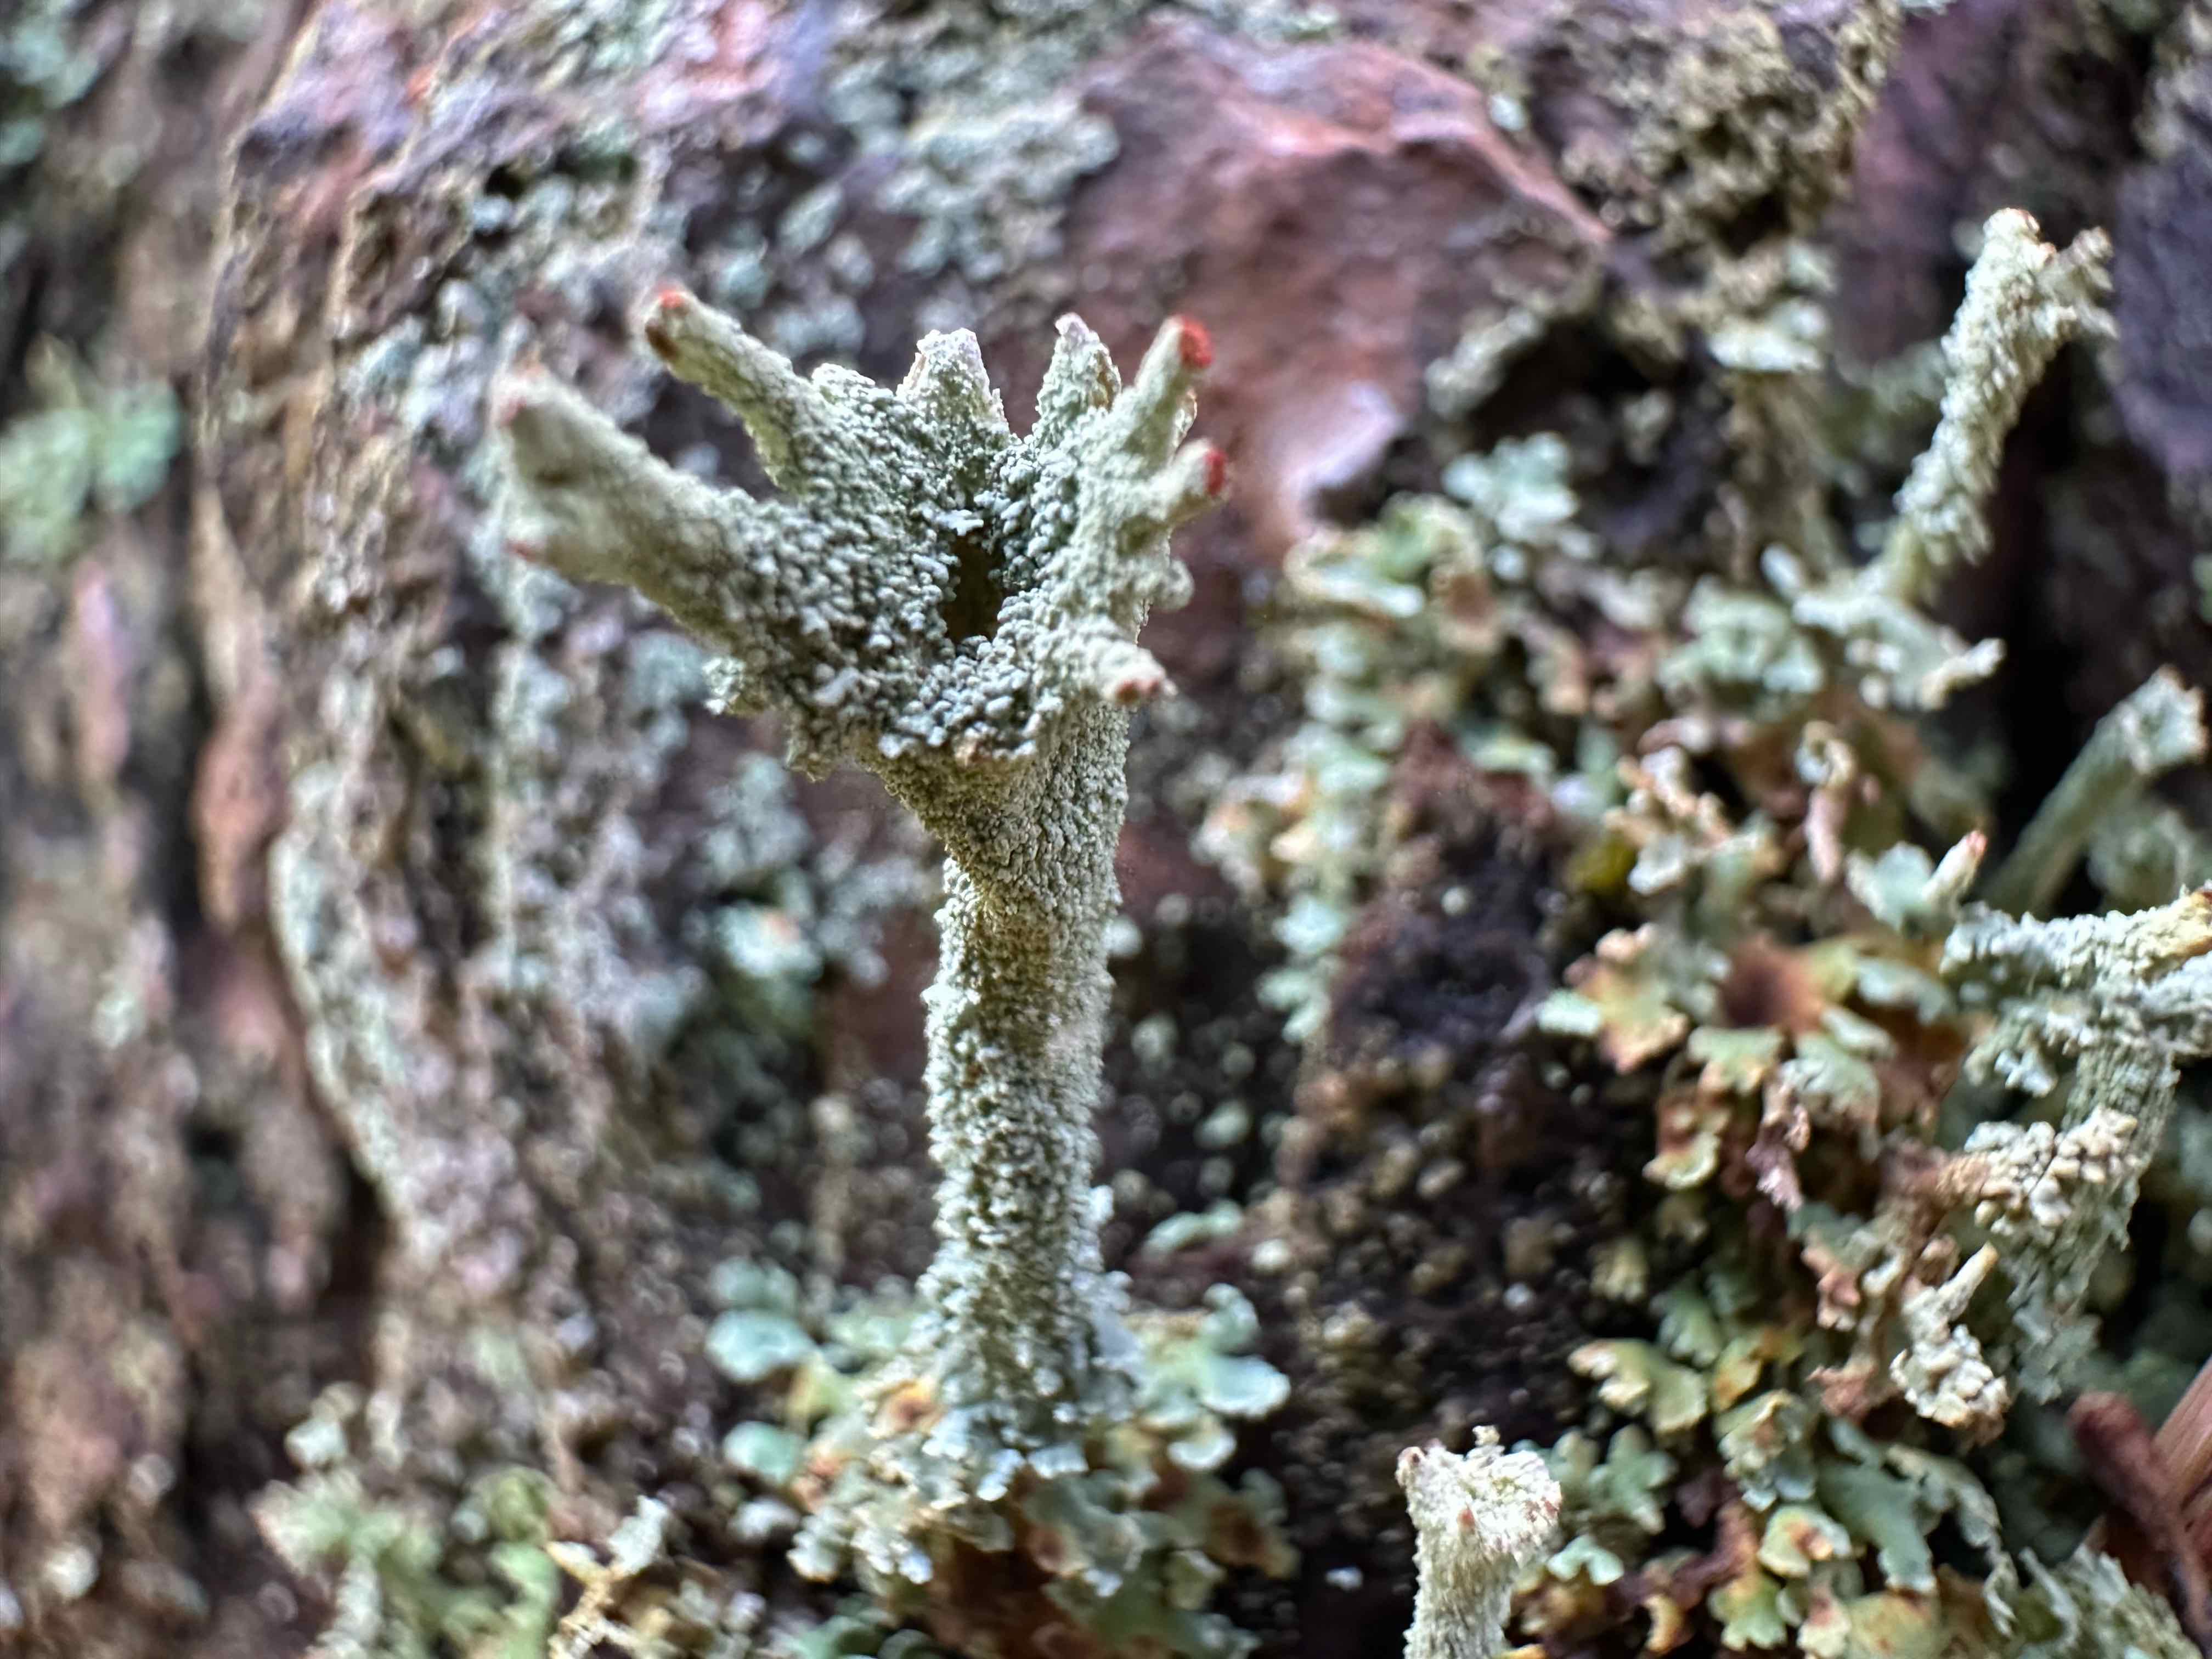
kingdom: Fungi
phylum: Ascomycota
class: Lecanoromycetes
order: Lecanorales
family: Cladoniaceae
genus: Cladonia
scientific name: Cladonia polydactyla
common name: vifte-bægerlav
